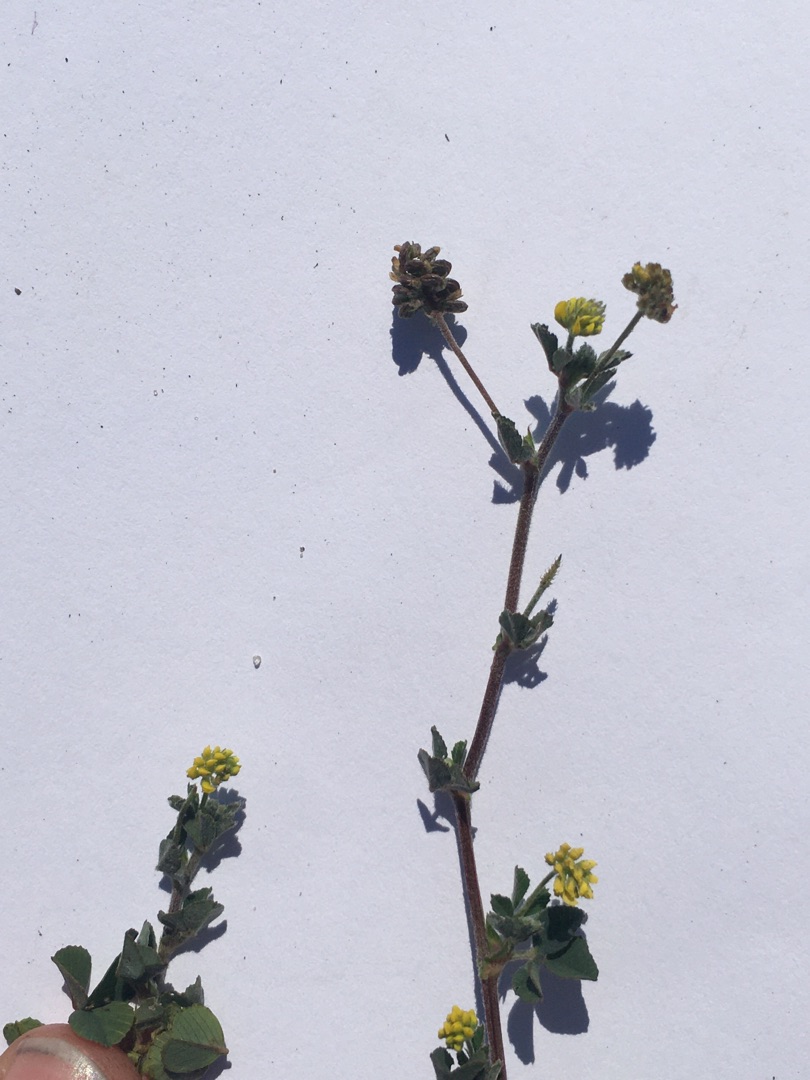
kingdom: Plantae
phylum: Tracheophyta
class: Magnoliopsida
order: Fabales
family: Fabaceae
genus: Medicago
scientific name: Medicago lupulina
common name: Humle-sneglebælg
